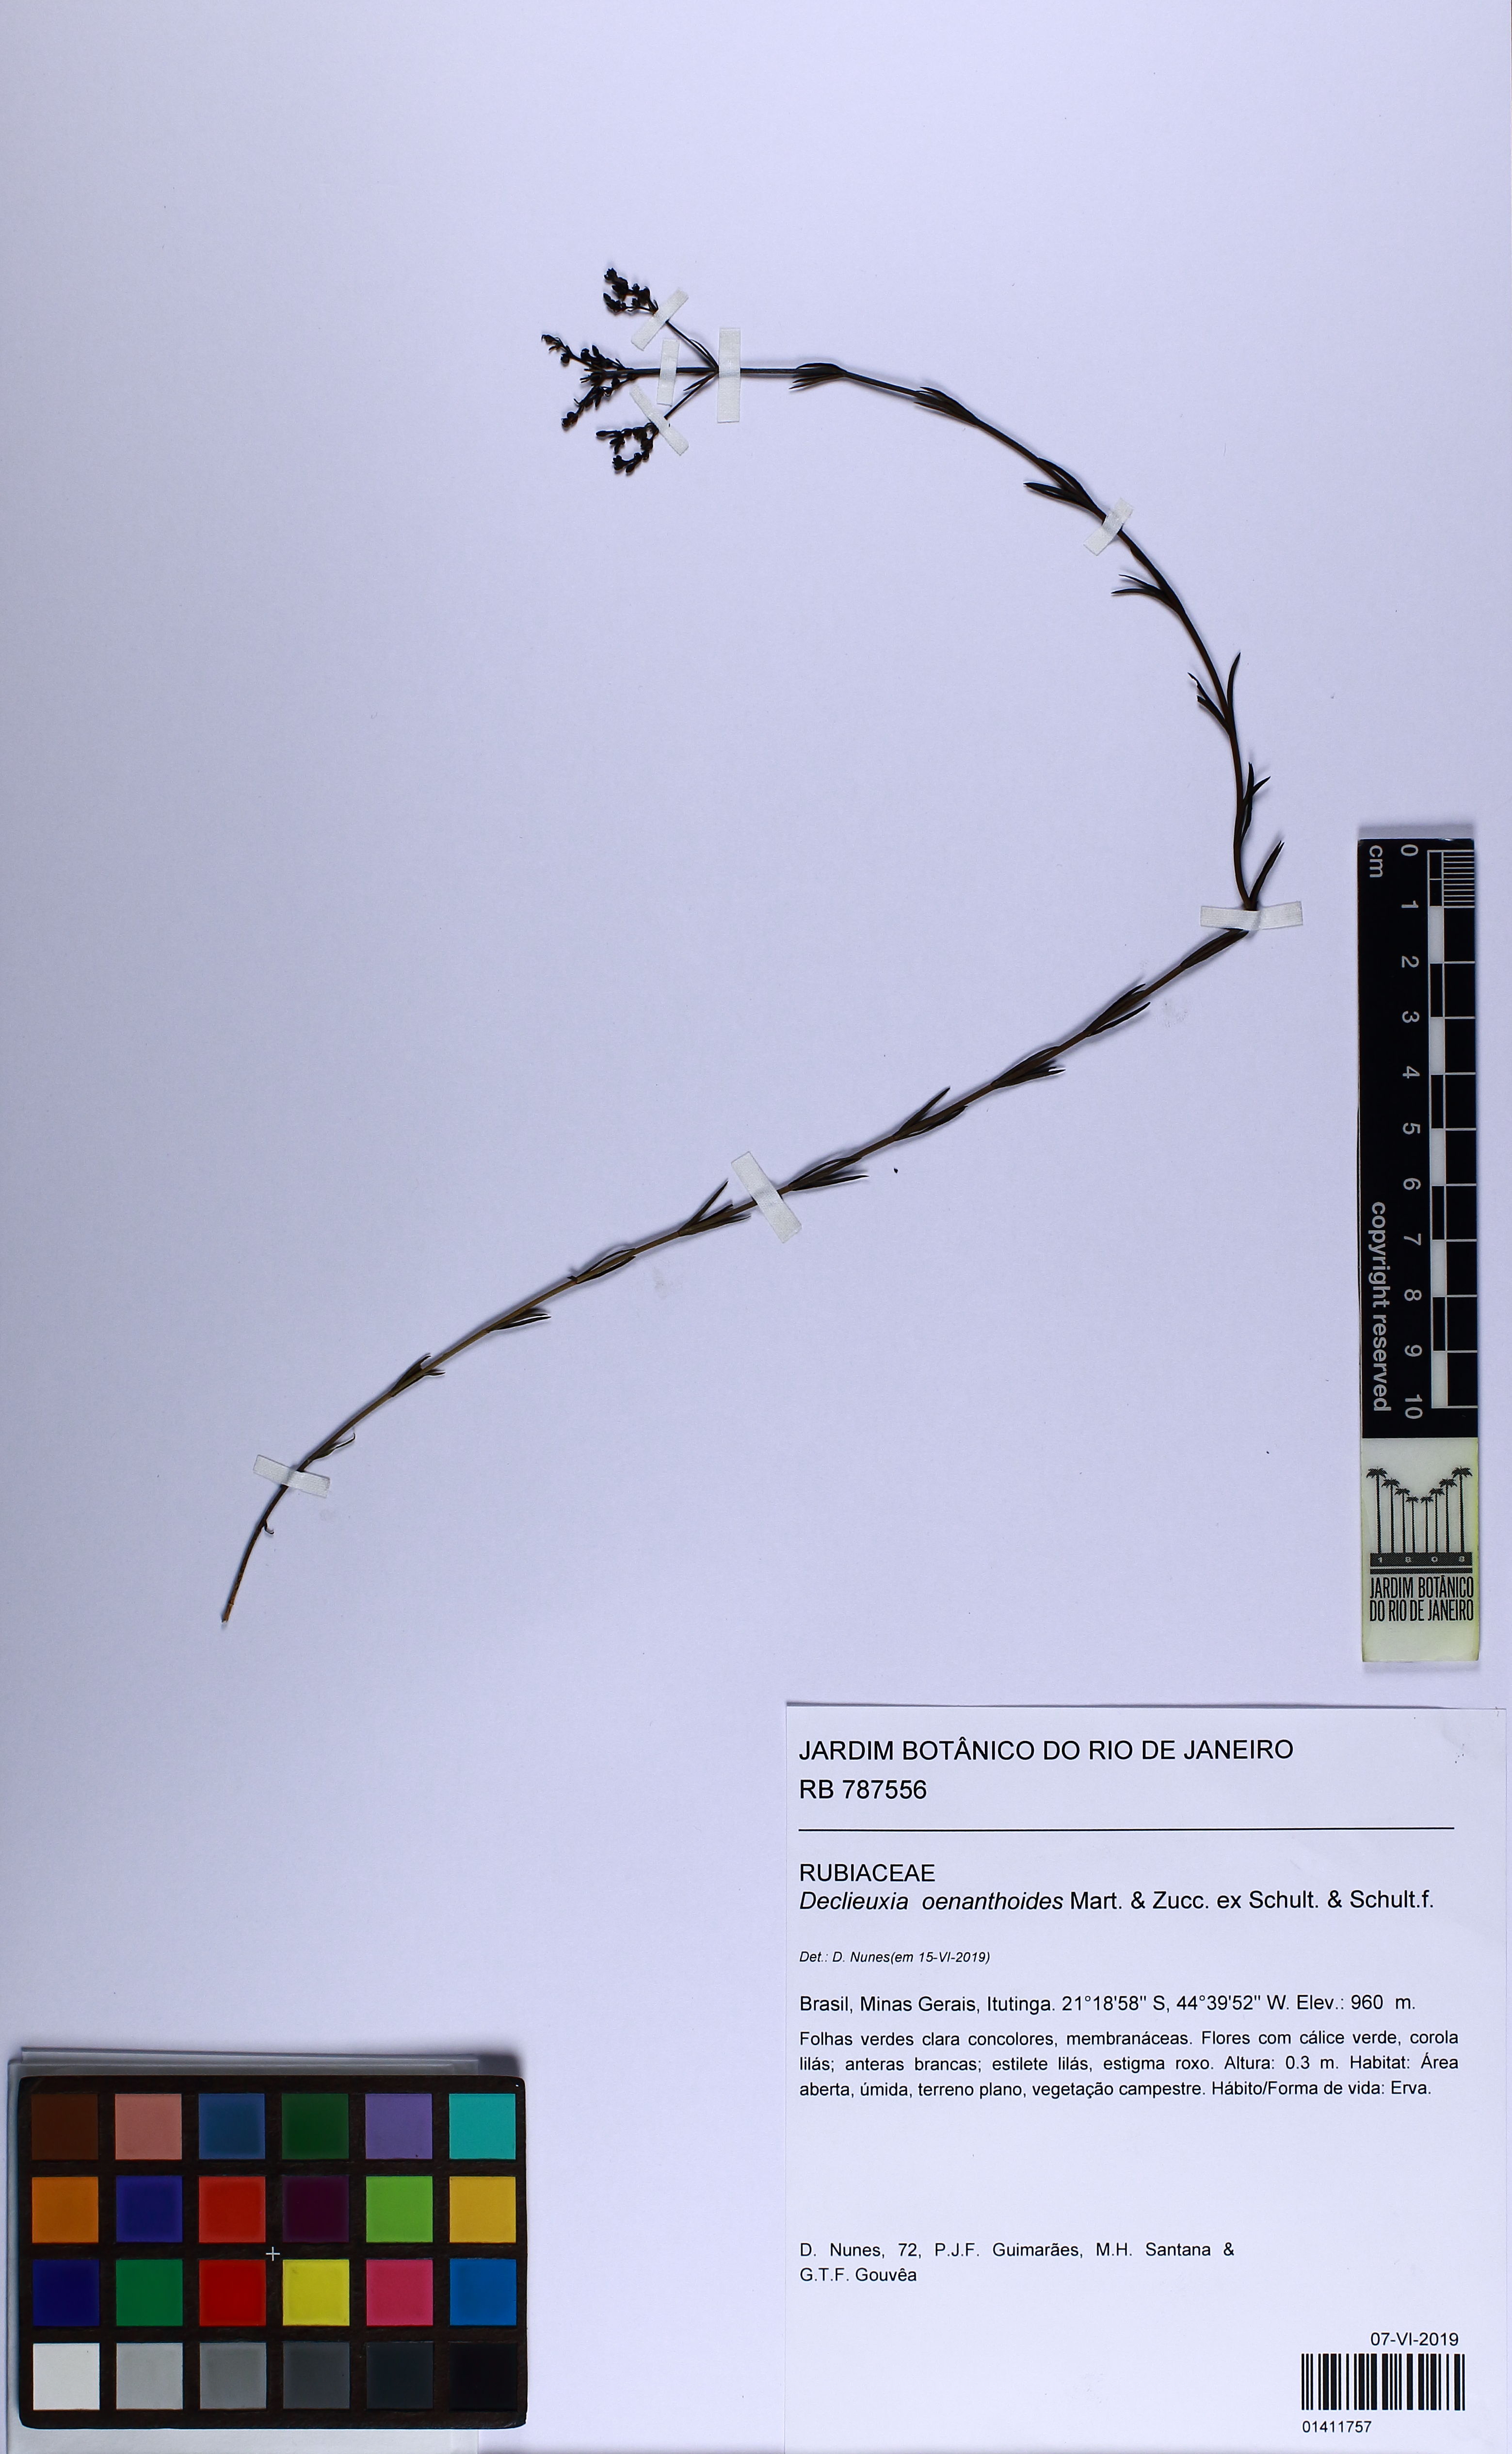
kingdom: Plantae
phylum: Tracheophyta
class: Magnoliopsida
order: Gentianales
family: Rubiaceae
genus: Declieuxia
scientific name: Declieuxia oenanthoides
